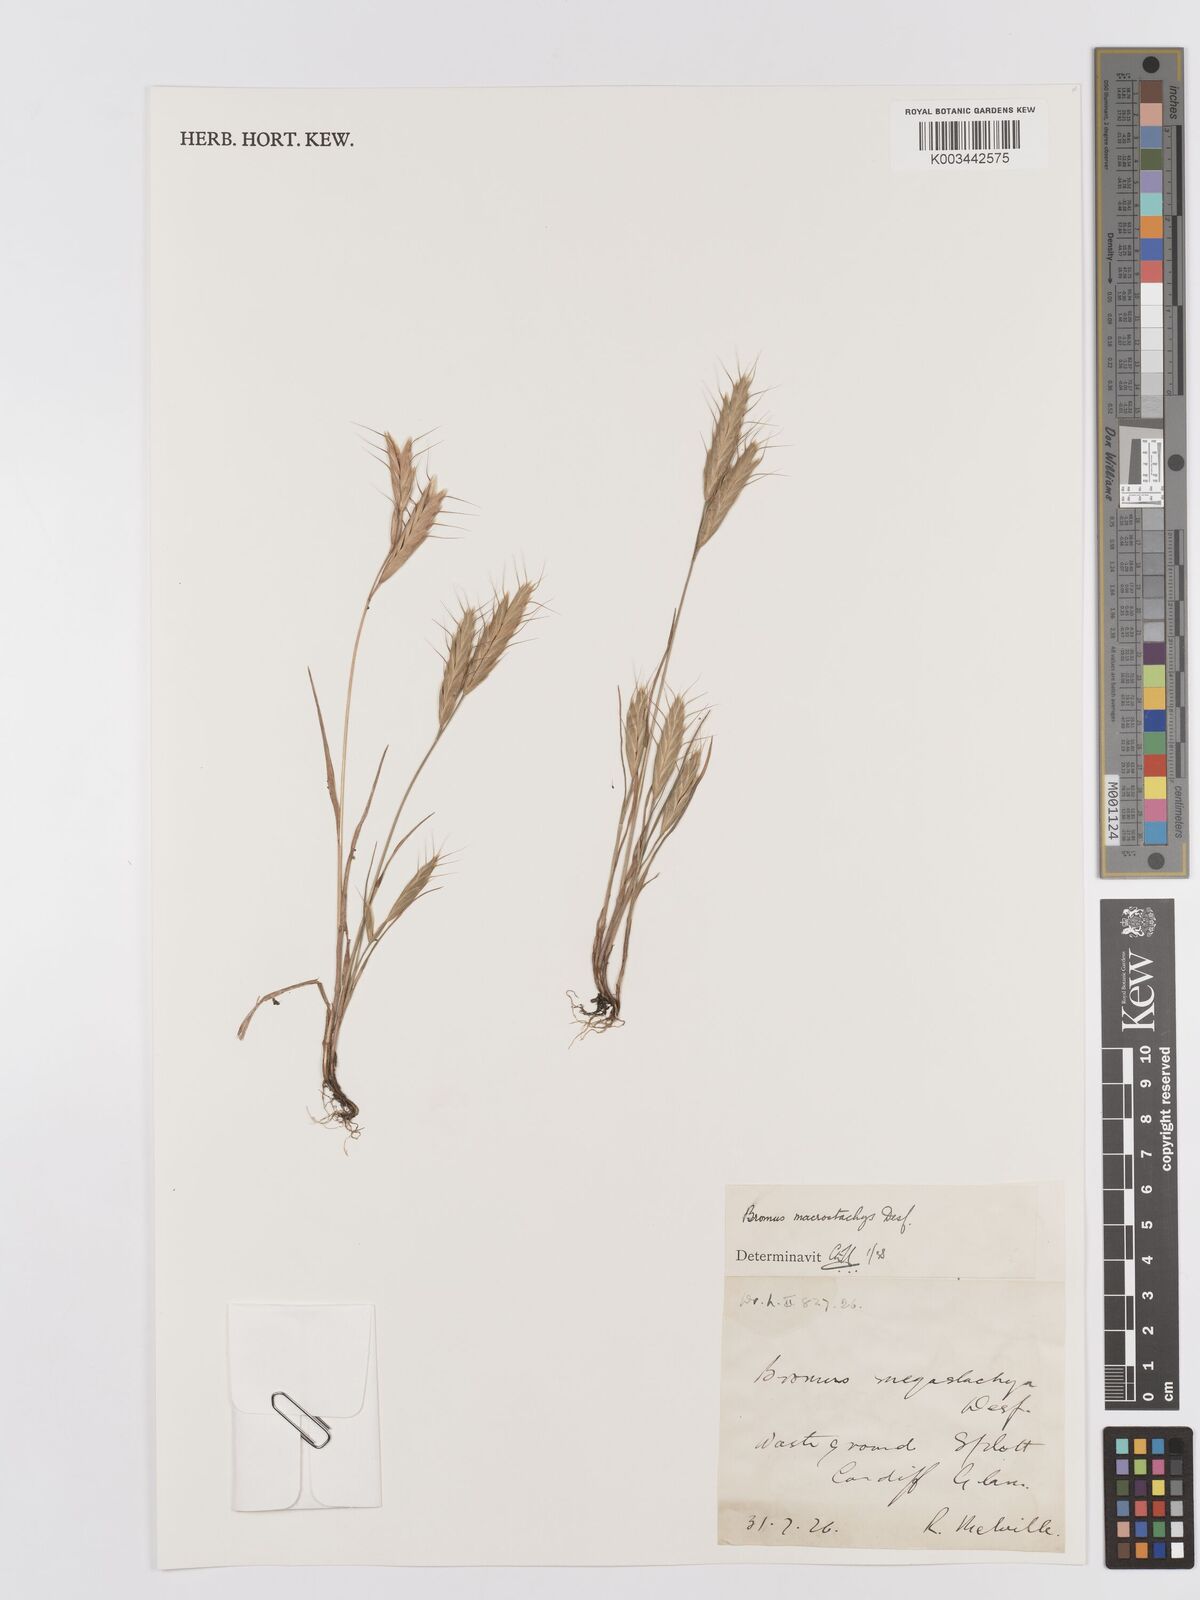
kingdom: Plantae
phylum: Tracheophyta
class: Liliopsida
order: Poales
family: Poaceae
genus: Bromus
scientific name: Bromus lanceolatus
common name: Mediterranean brome
